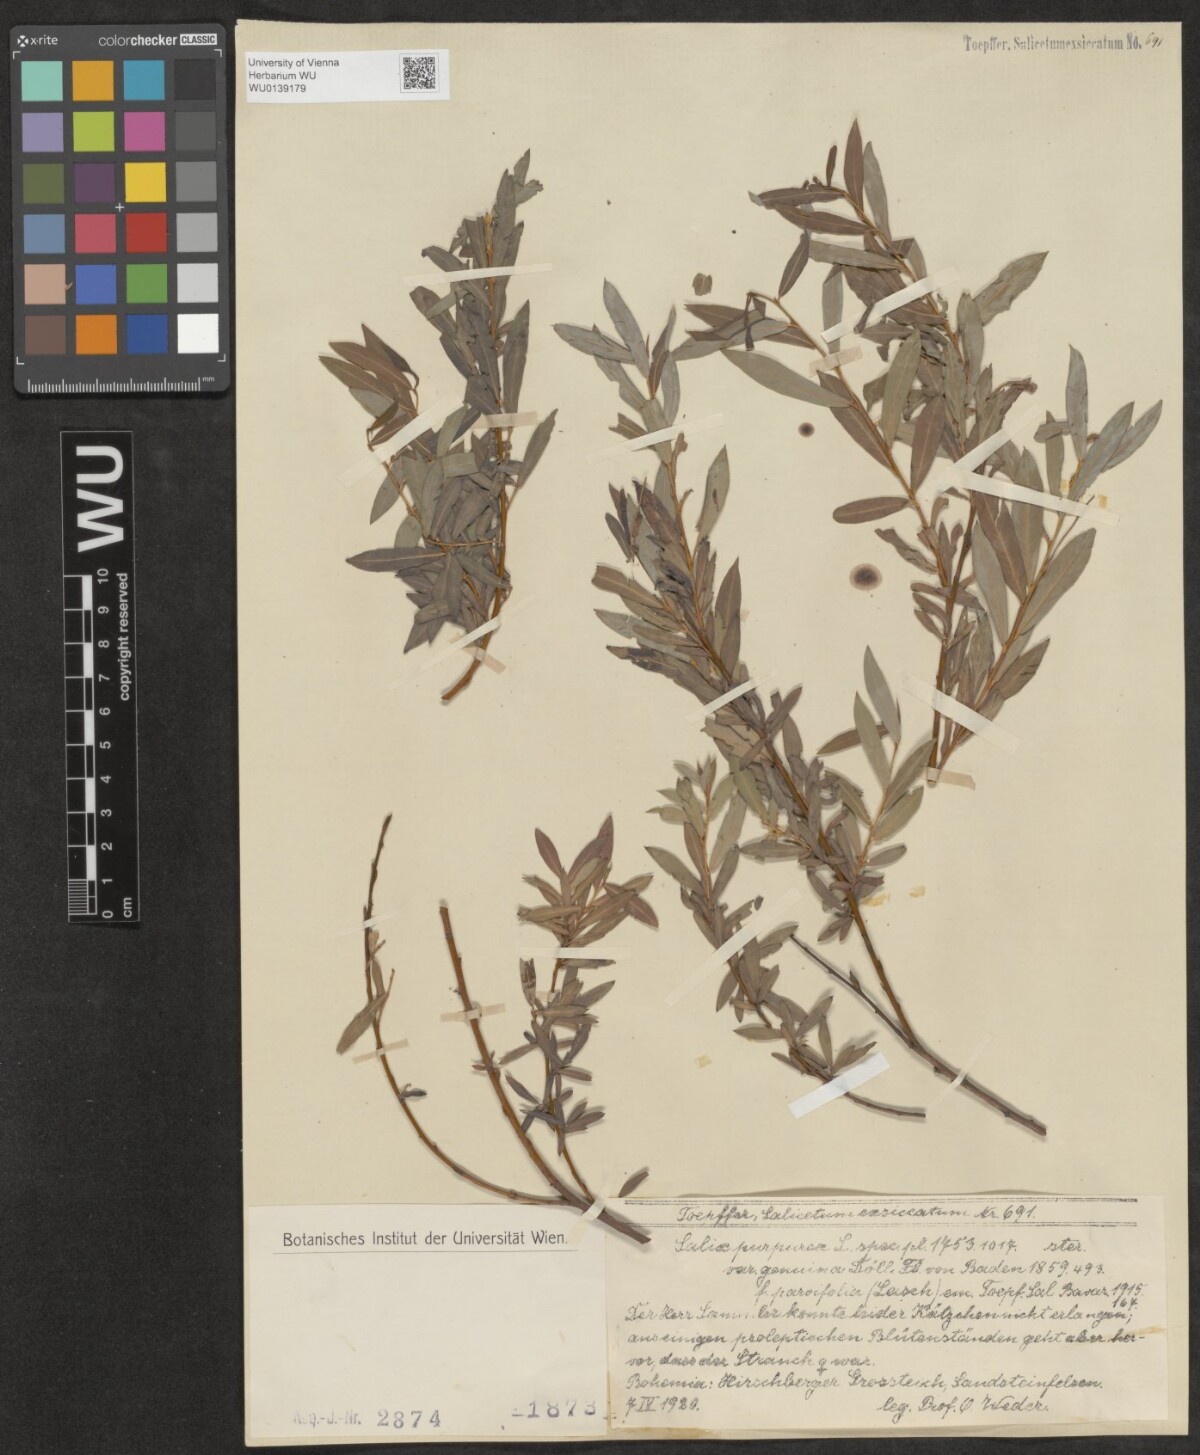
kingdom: Plantae
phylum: Tracheophyta
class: Magnoliopsida
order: Malpighiales
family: Salicaceae
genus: Salix
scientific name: Salix purpurea
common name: Purple willow
